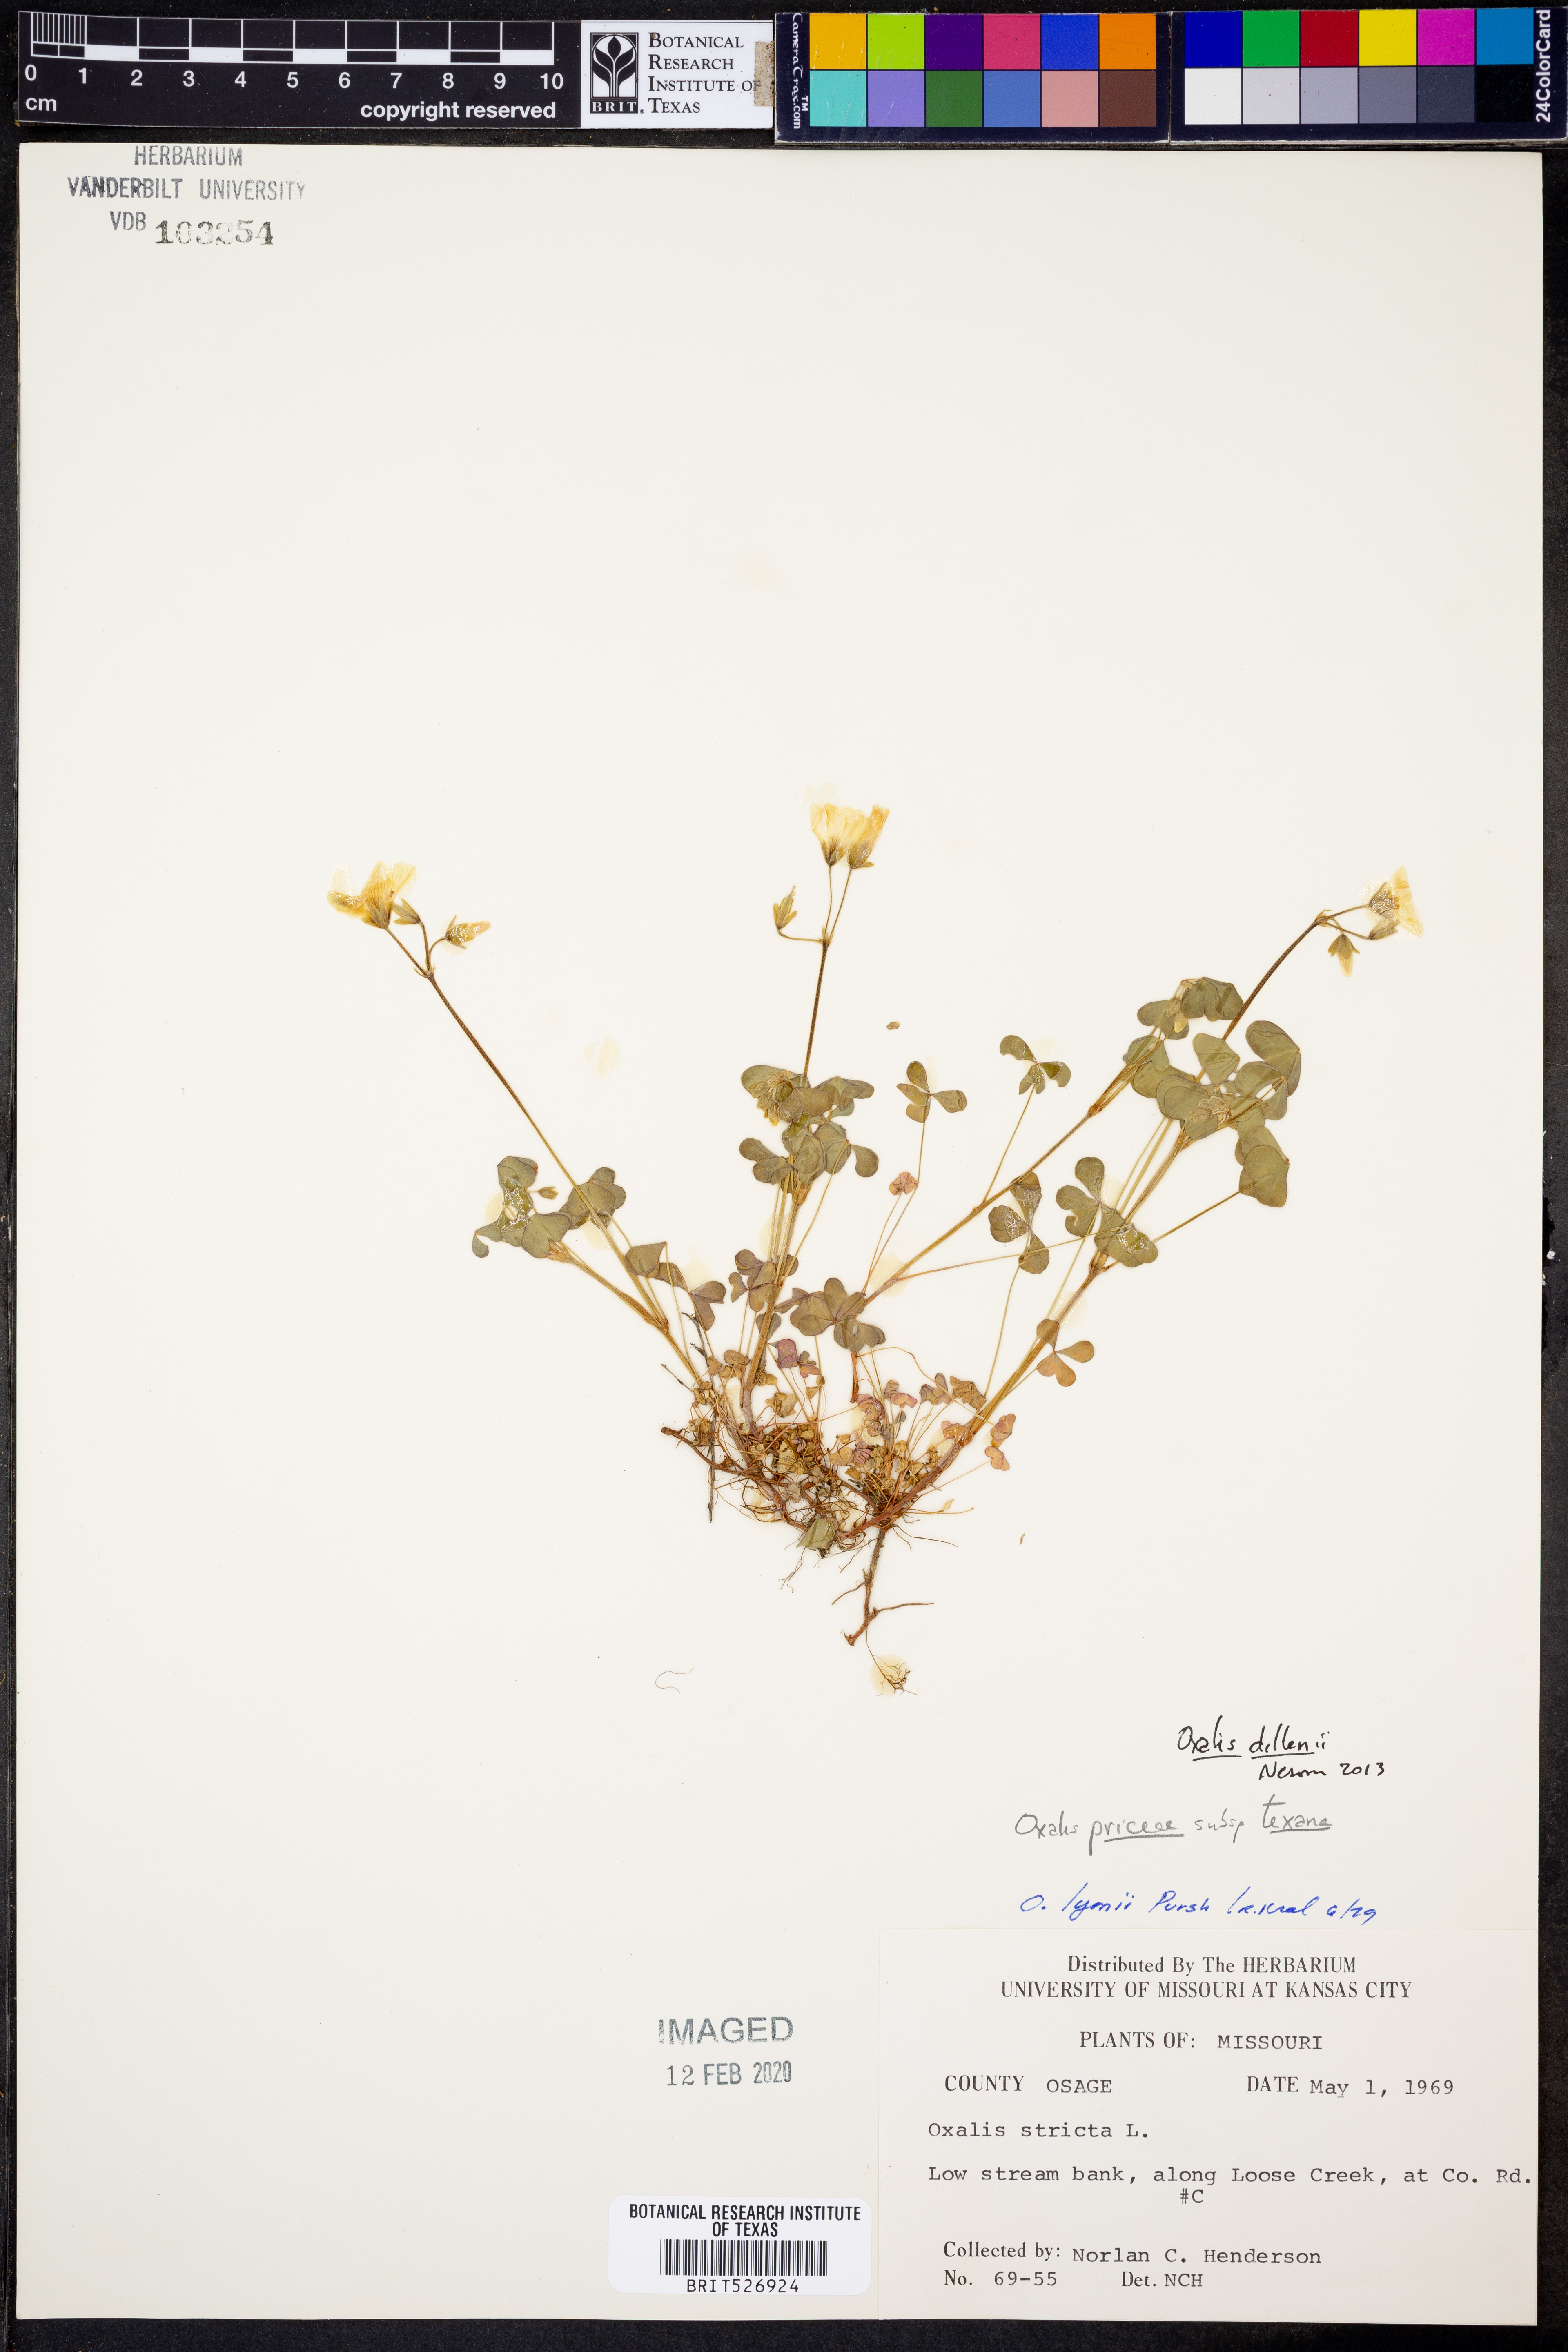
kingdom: Plantae
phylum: Tracheophyta
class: Magnoliopsida
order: Oxalidales
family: Oxalidaceae
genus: Oxalis
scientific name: Oxalis dillenii
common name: Sussex yellow-sorrel
